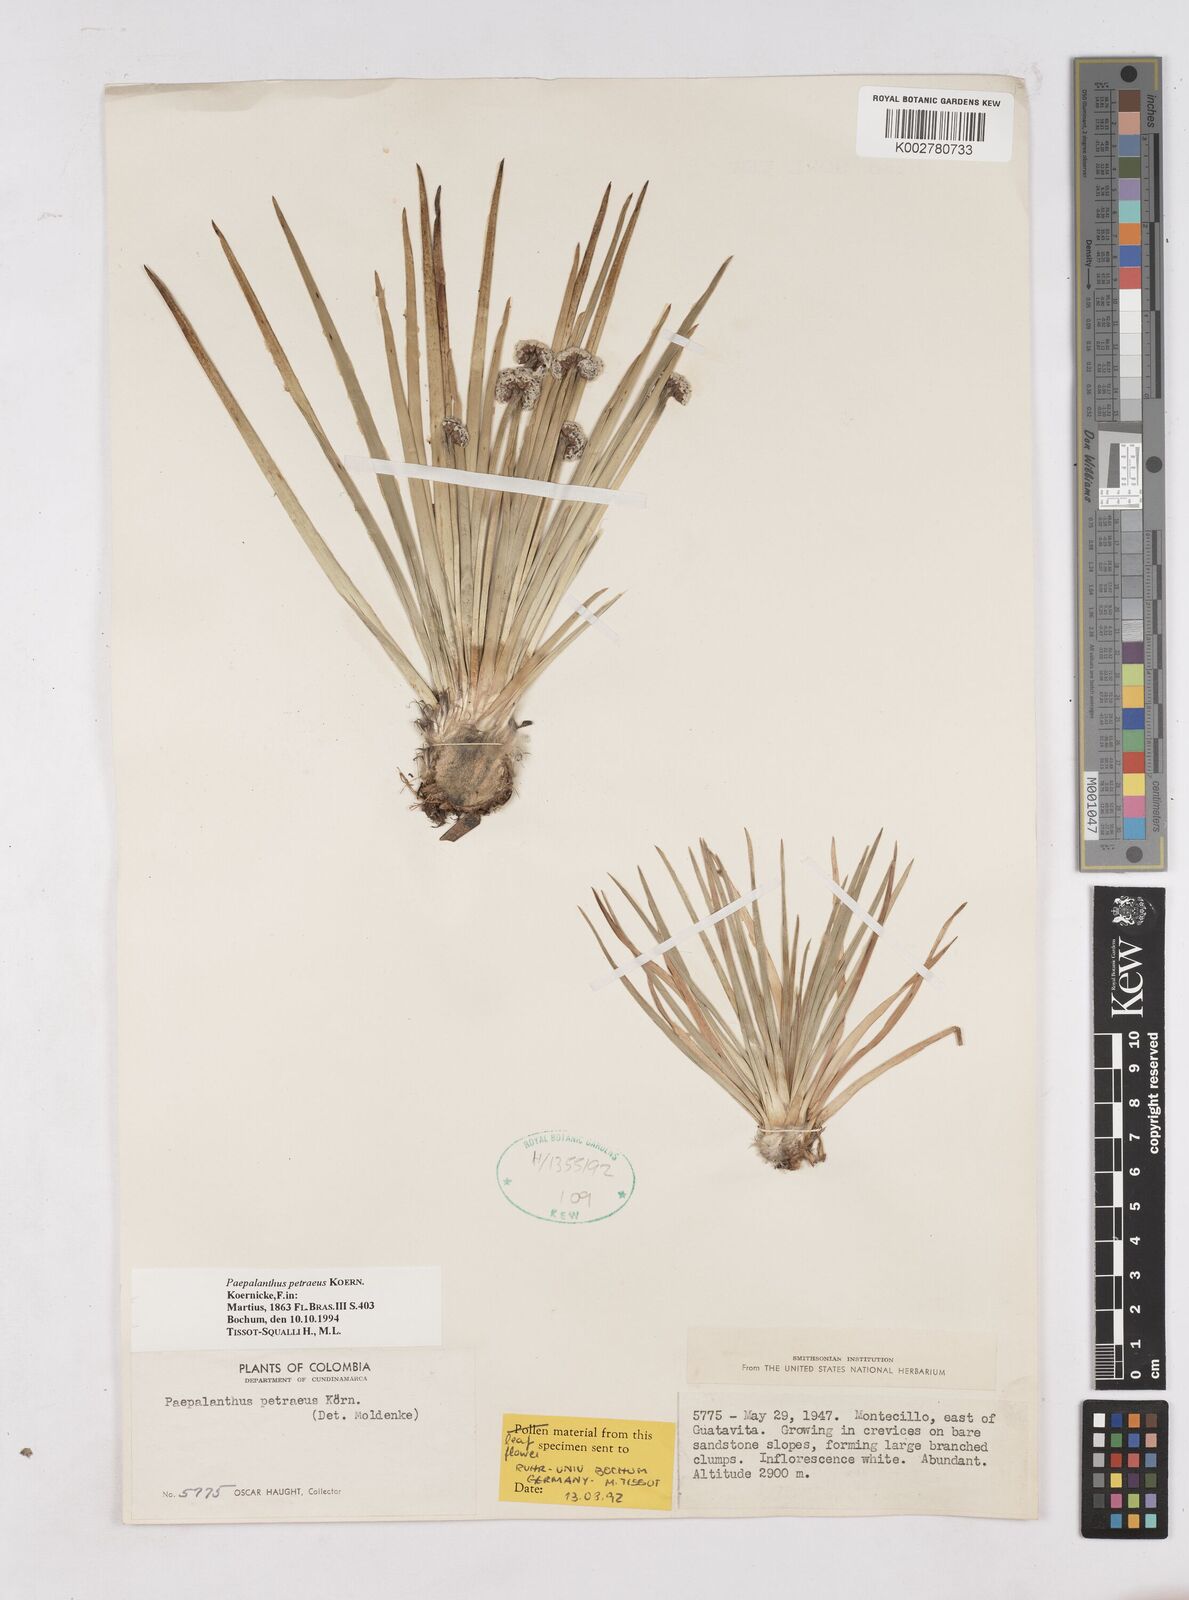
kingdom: Plantae
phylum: Tracheophyta
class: Liliopsida
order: Poales
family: Eriocaulaceae
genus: Paepalanthus
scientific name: Paepalanthus petraeus
